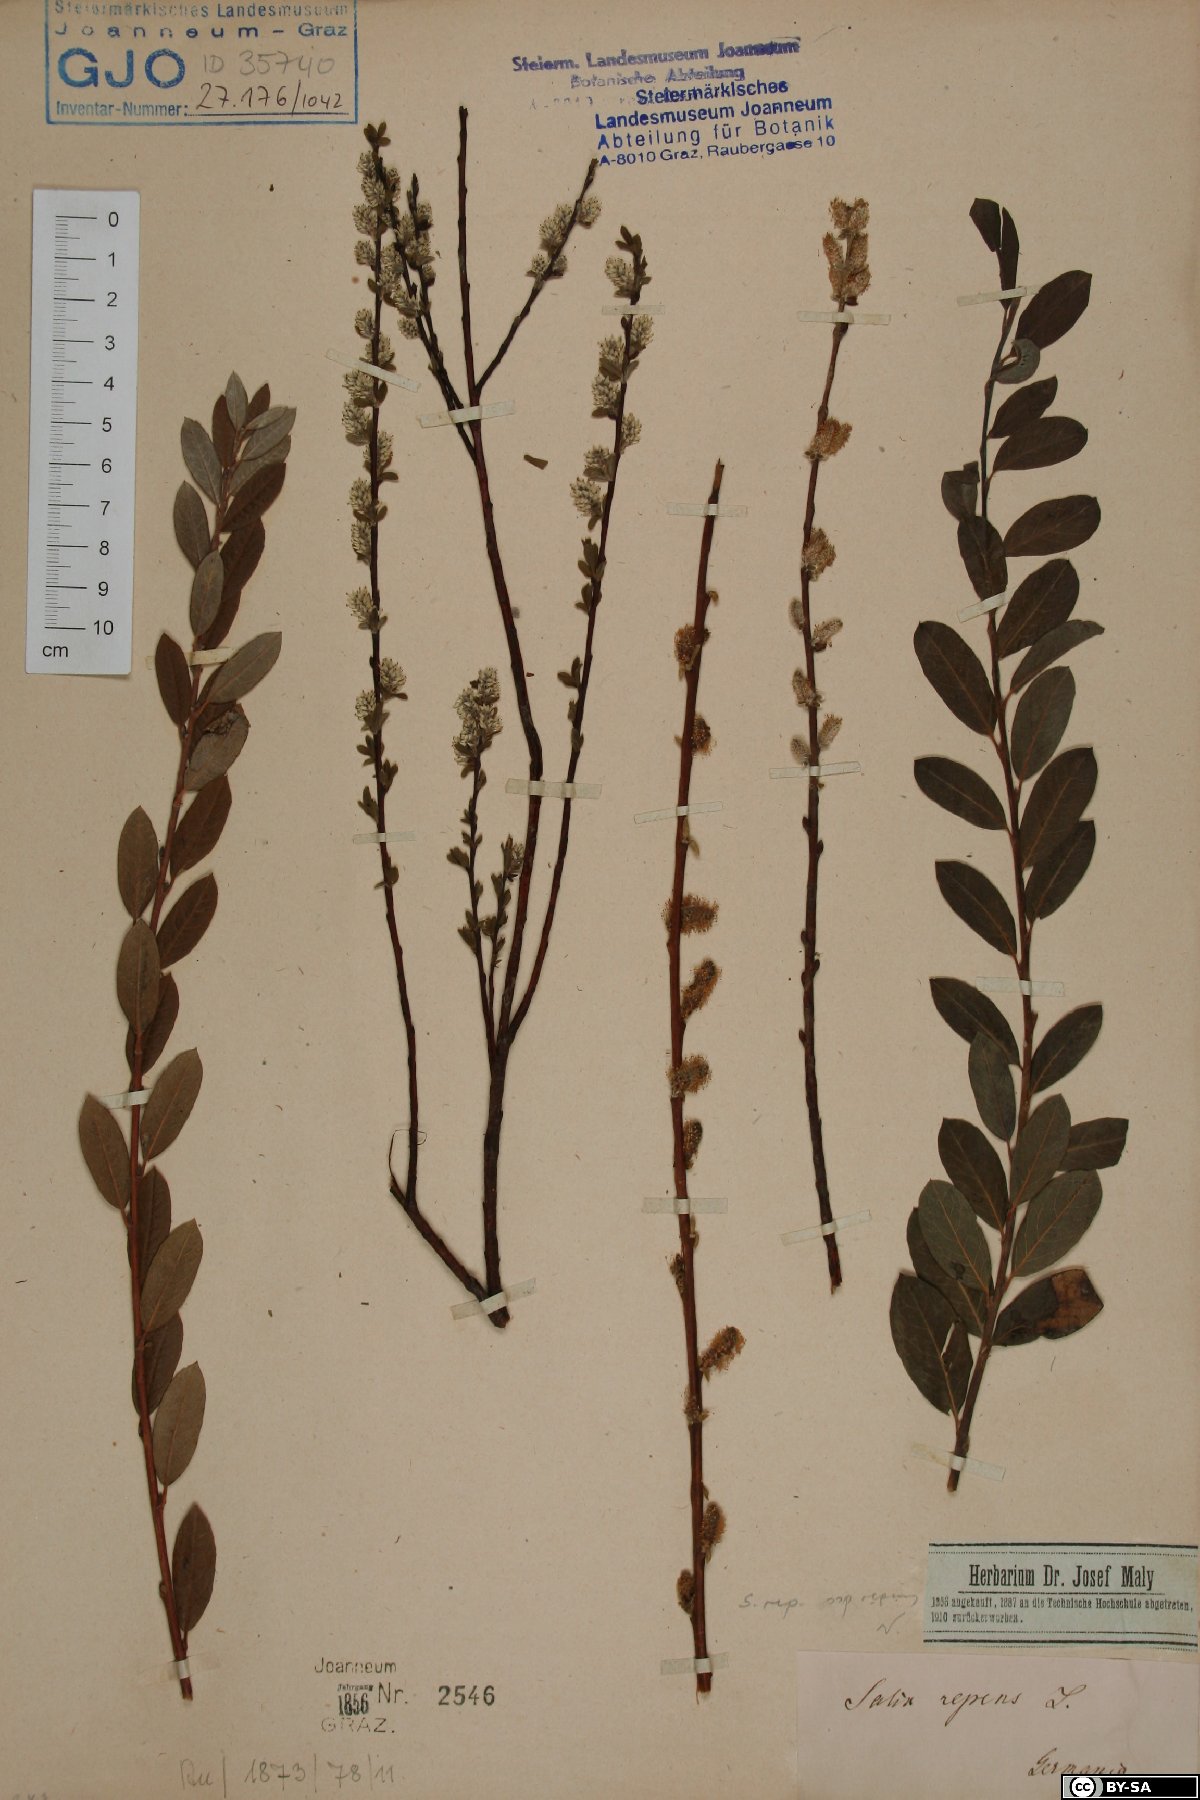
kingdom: Plantae
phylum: Tracheophyta
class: Magnoliopsida
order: Malpighiales
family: Salicaceae
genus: Salix
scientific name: Salix repens
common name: Creeping willow
